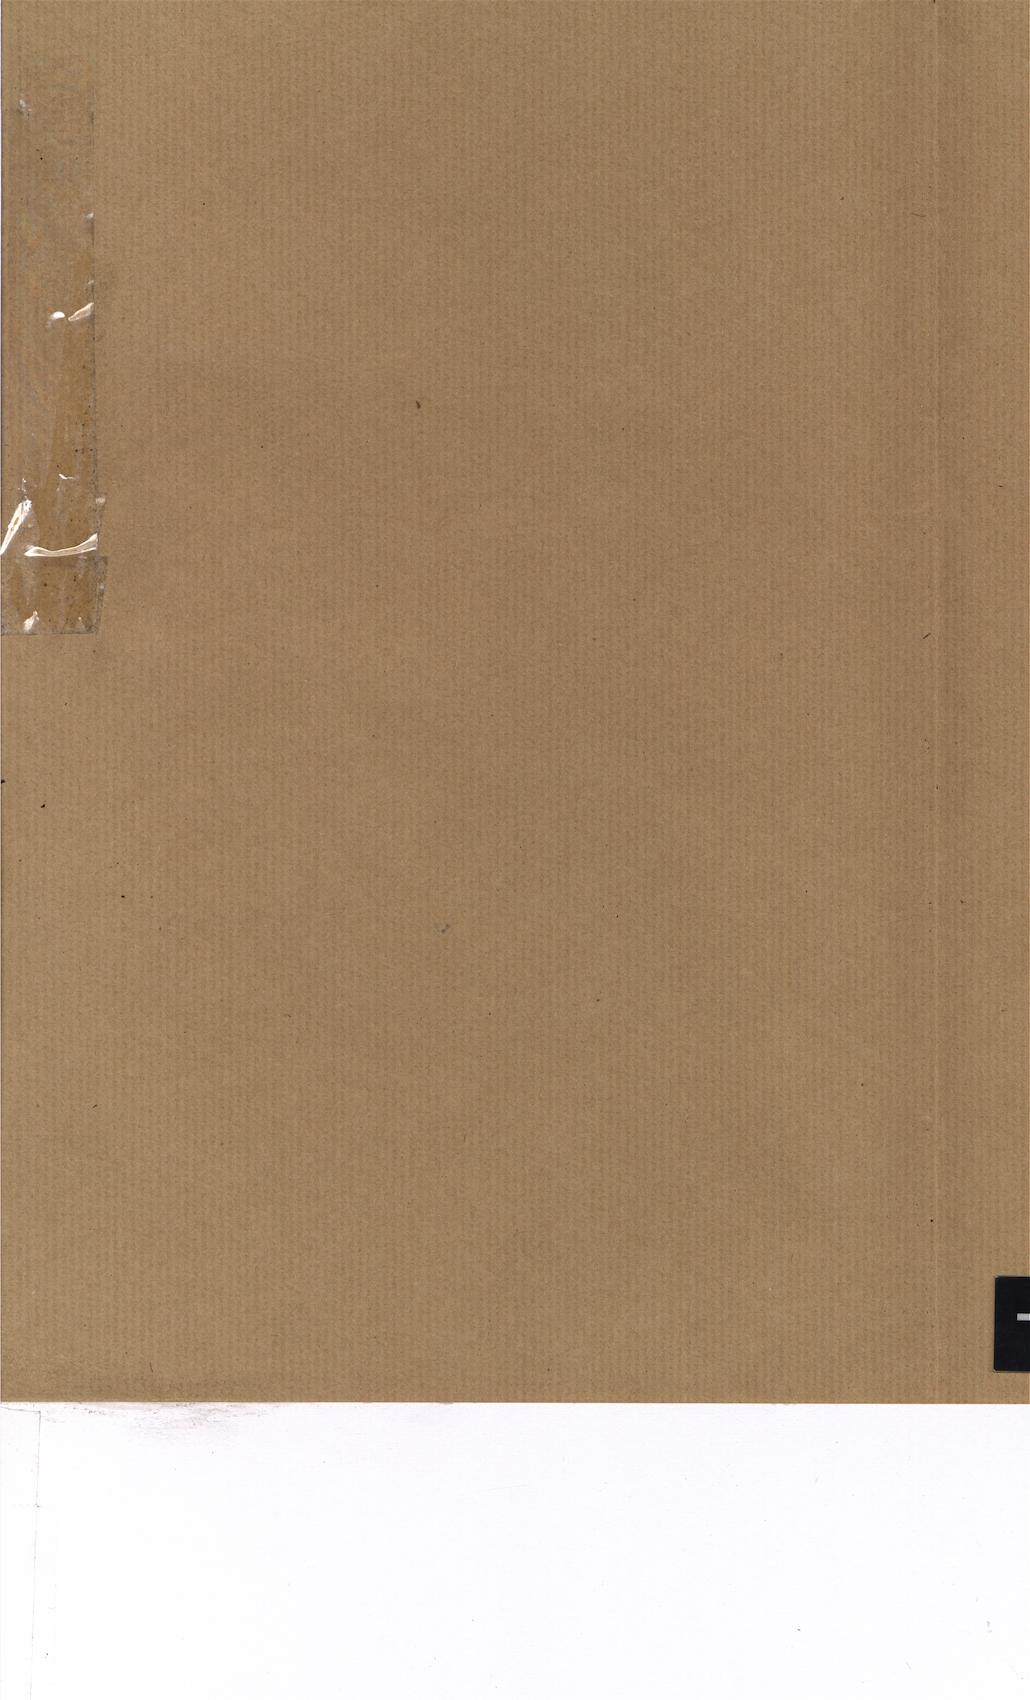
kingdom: Plantae
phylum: Tracheophyta
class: Polypodiopsida
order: Hymenophyllales
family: Hymenophyllaceae
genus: Hymenophyllum
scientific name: Hymenophyllum fucoides
